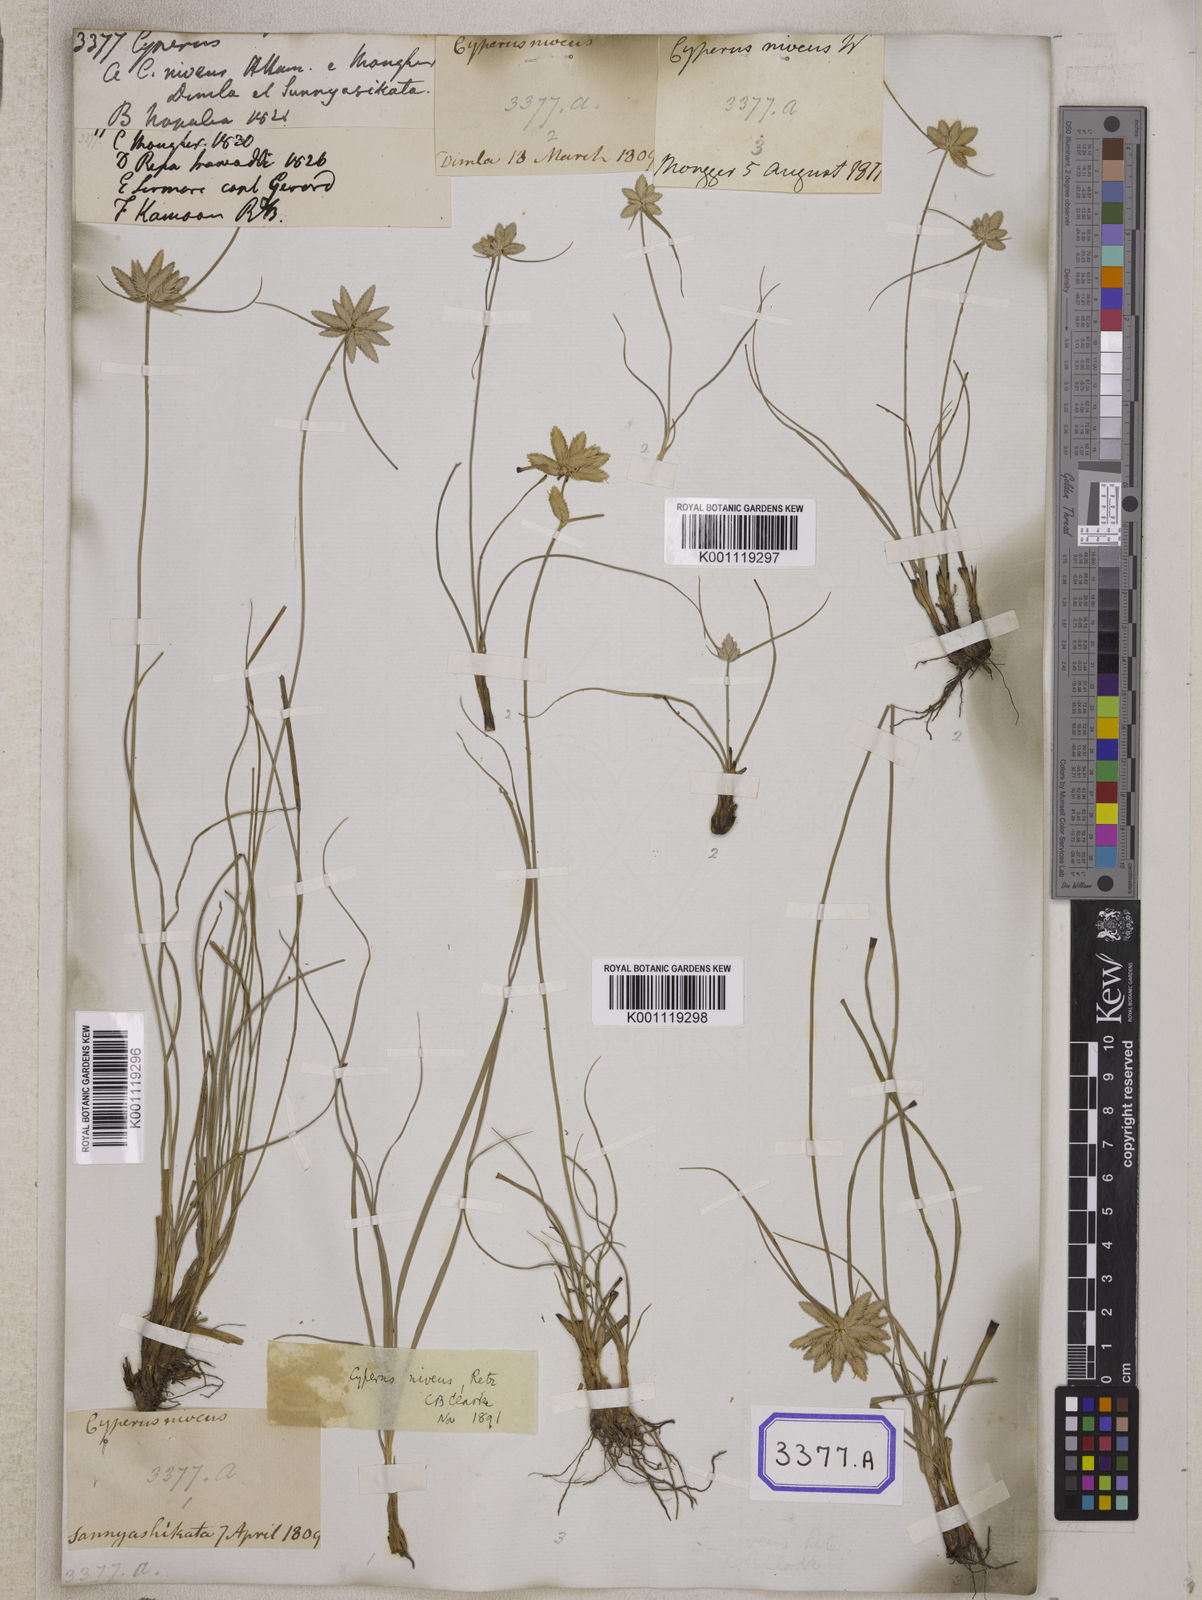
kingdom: Plantae
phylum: Tracheophyta
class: Liliopsida
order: Poales
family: Cyperaceae
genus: Cyperus
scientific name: Cyperus
